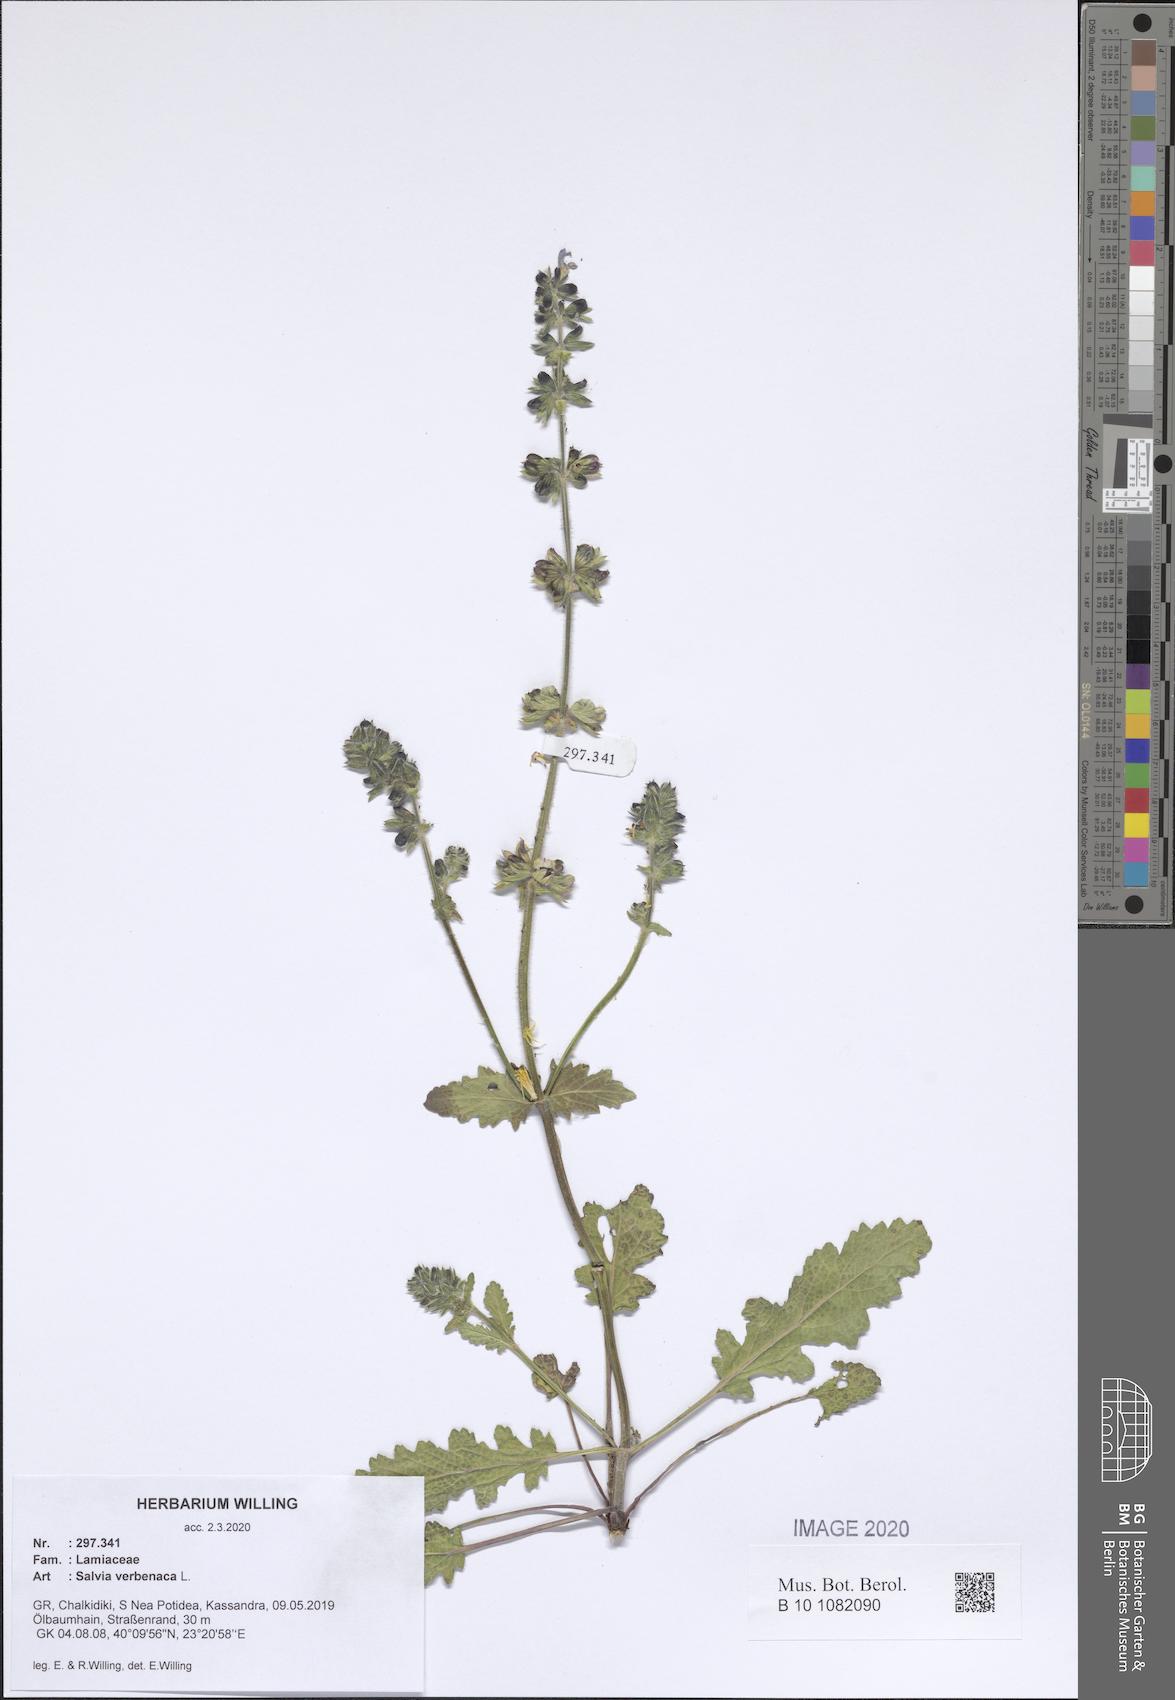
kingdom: Plantae
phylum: Tracheophyta
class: Magnoliopsida
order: Lamiales
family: Lamiaceae
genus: Salvia
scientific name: Salvia verbenaca
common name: Wild clary
